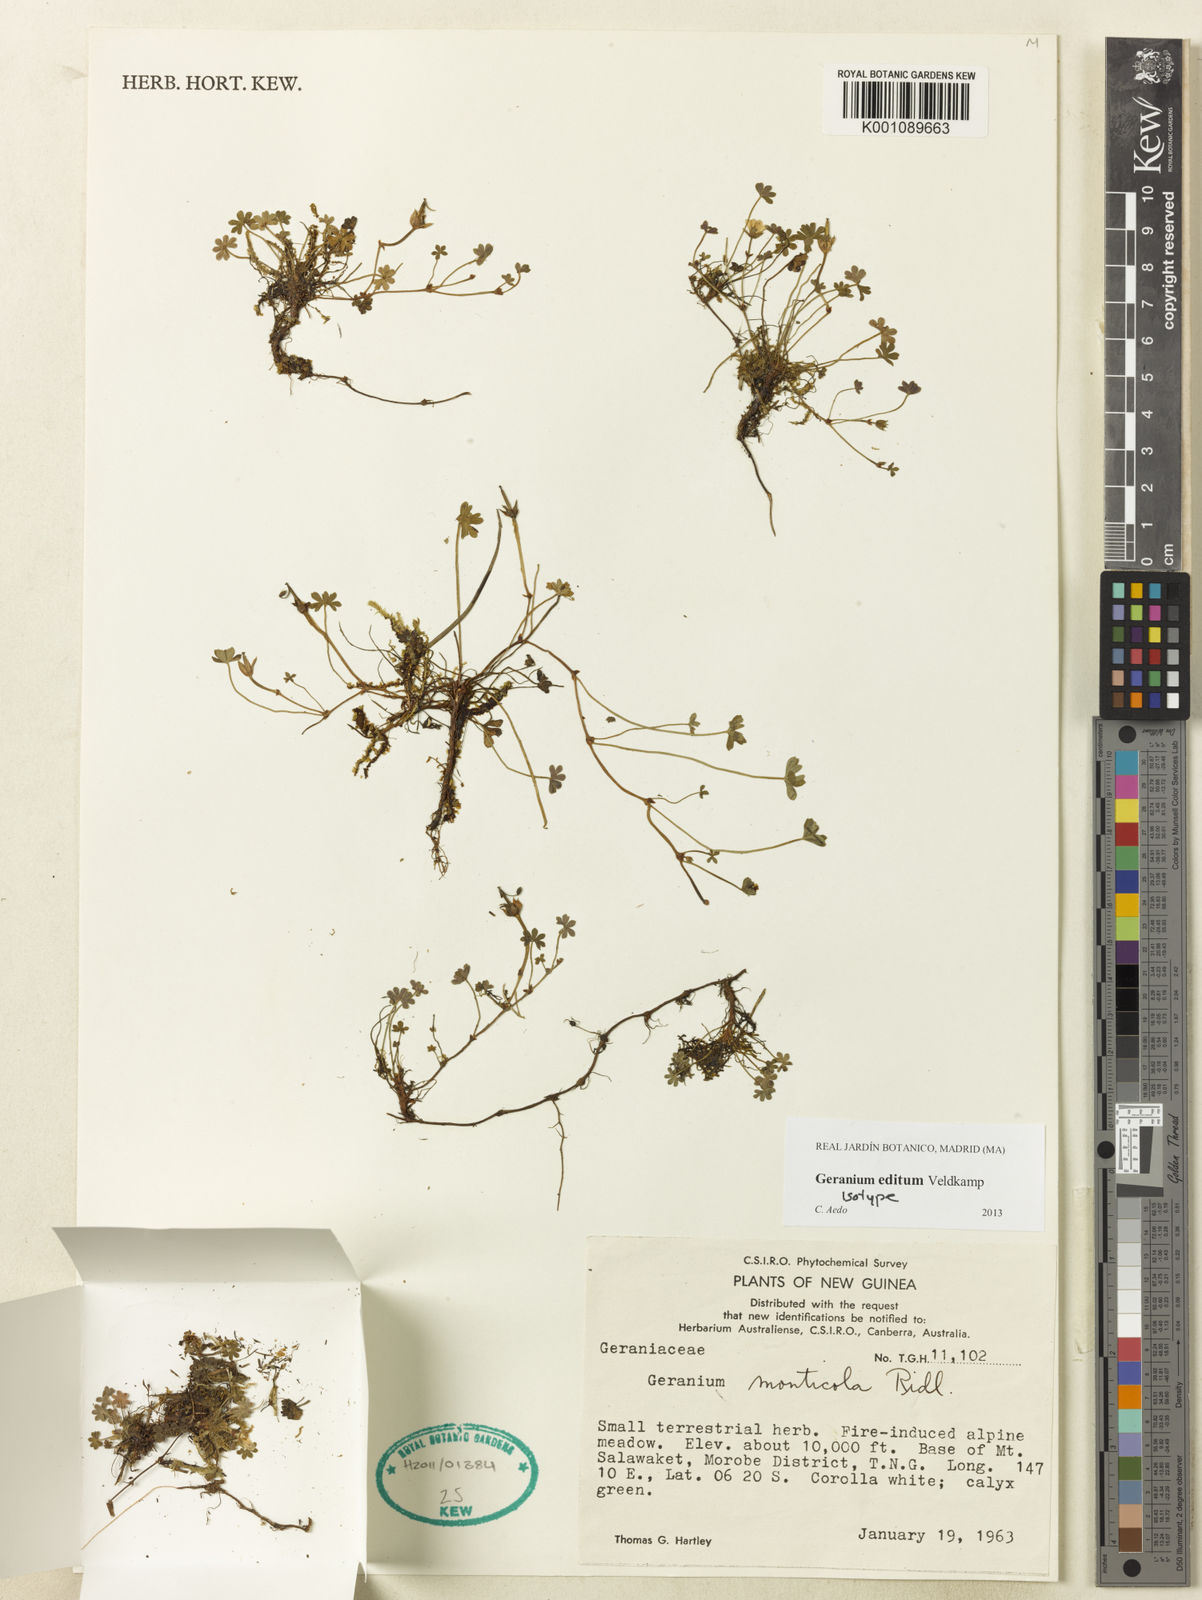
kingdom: Plantae
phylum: Tracheophyta
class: Magnoliopsida
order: Geraniales
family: Geraniaceae
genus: Geranium
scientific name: Geranium editum
